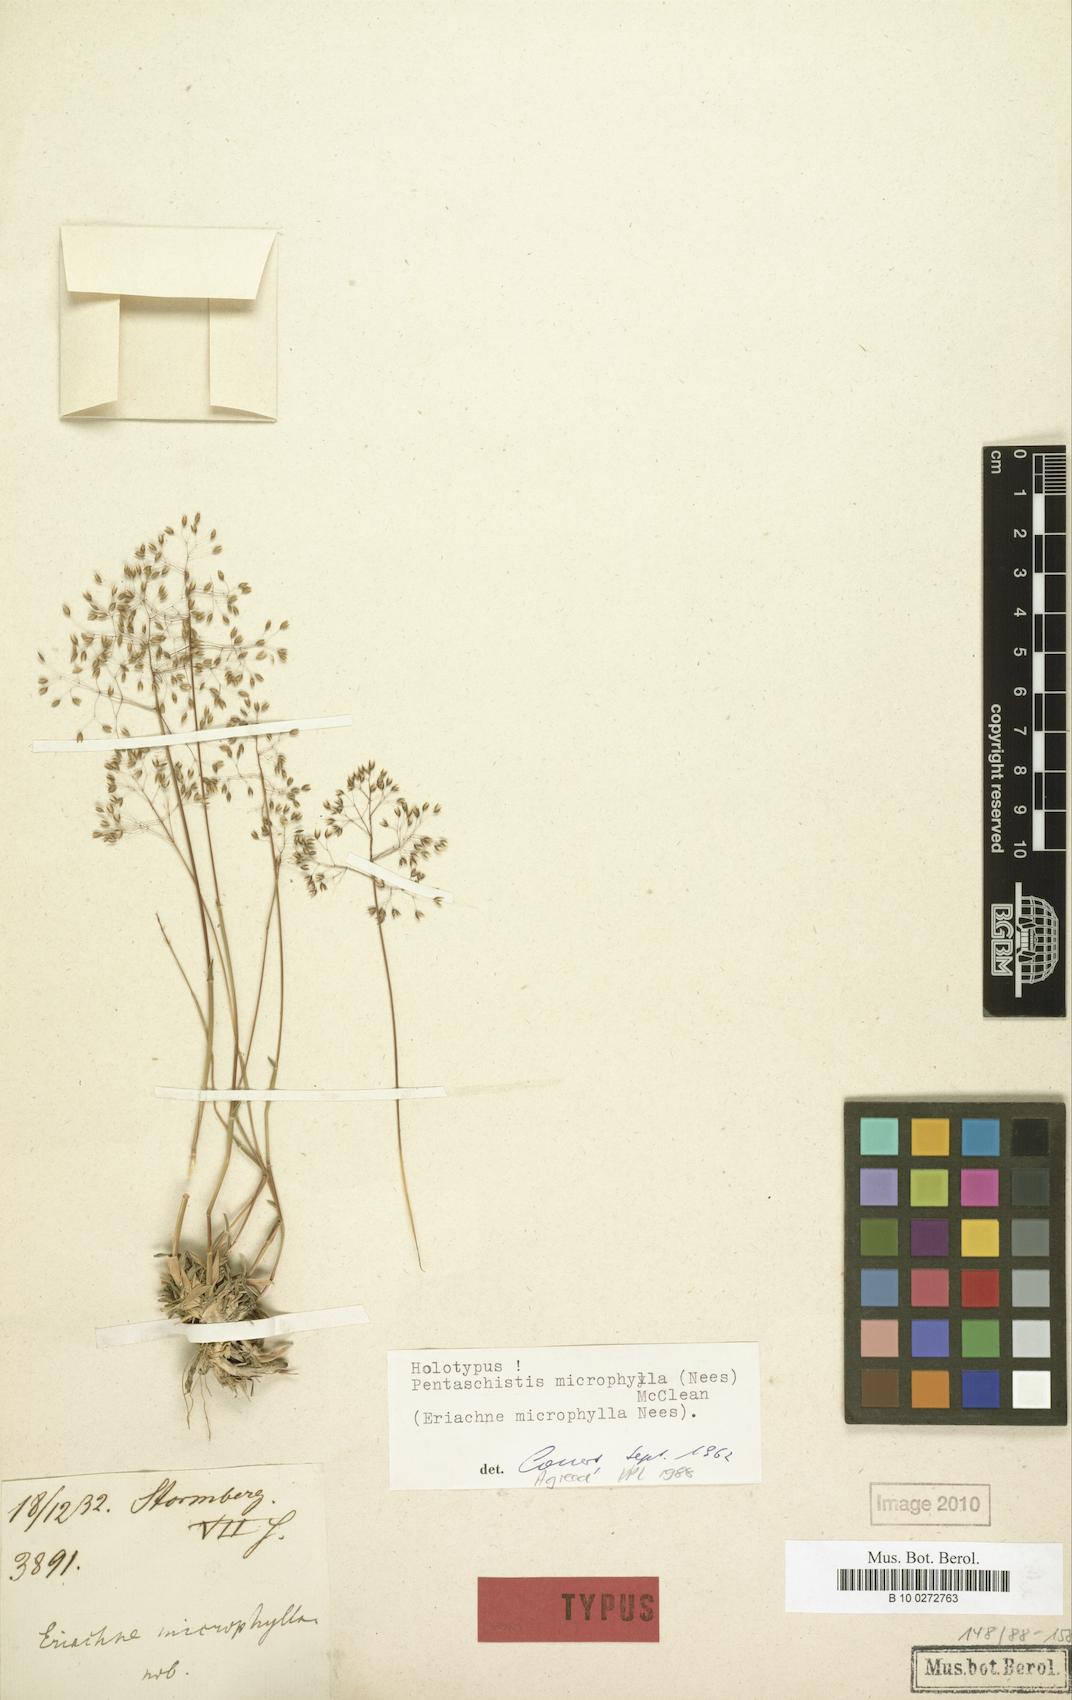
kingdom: Plantae
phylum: Tracheophyta
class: Liliopsida
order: Poales
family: Poaceae
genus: Pentameris
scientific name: Pentameris microphylla
